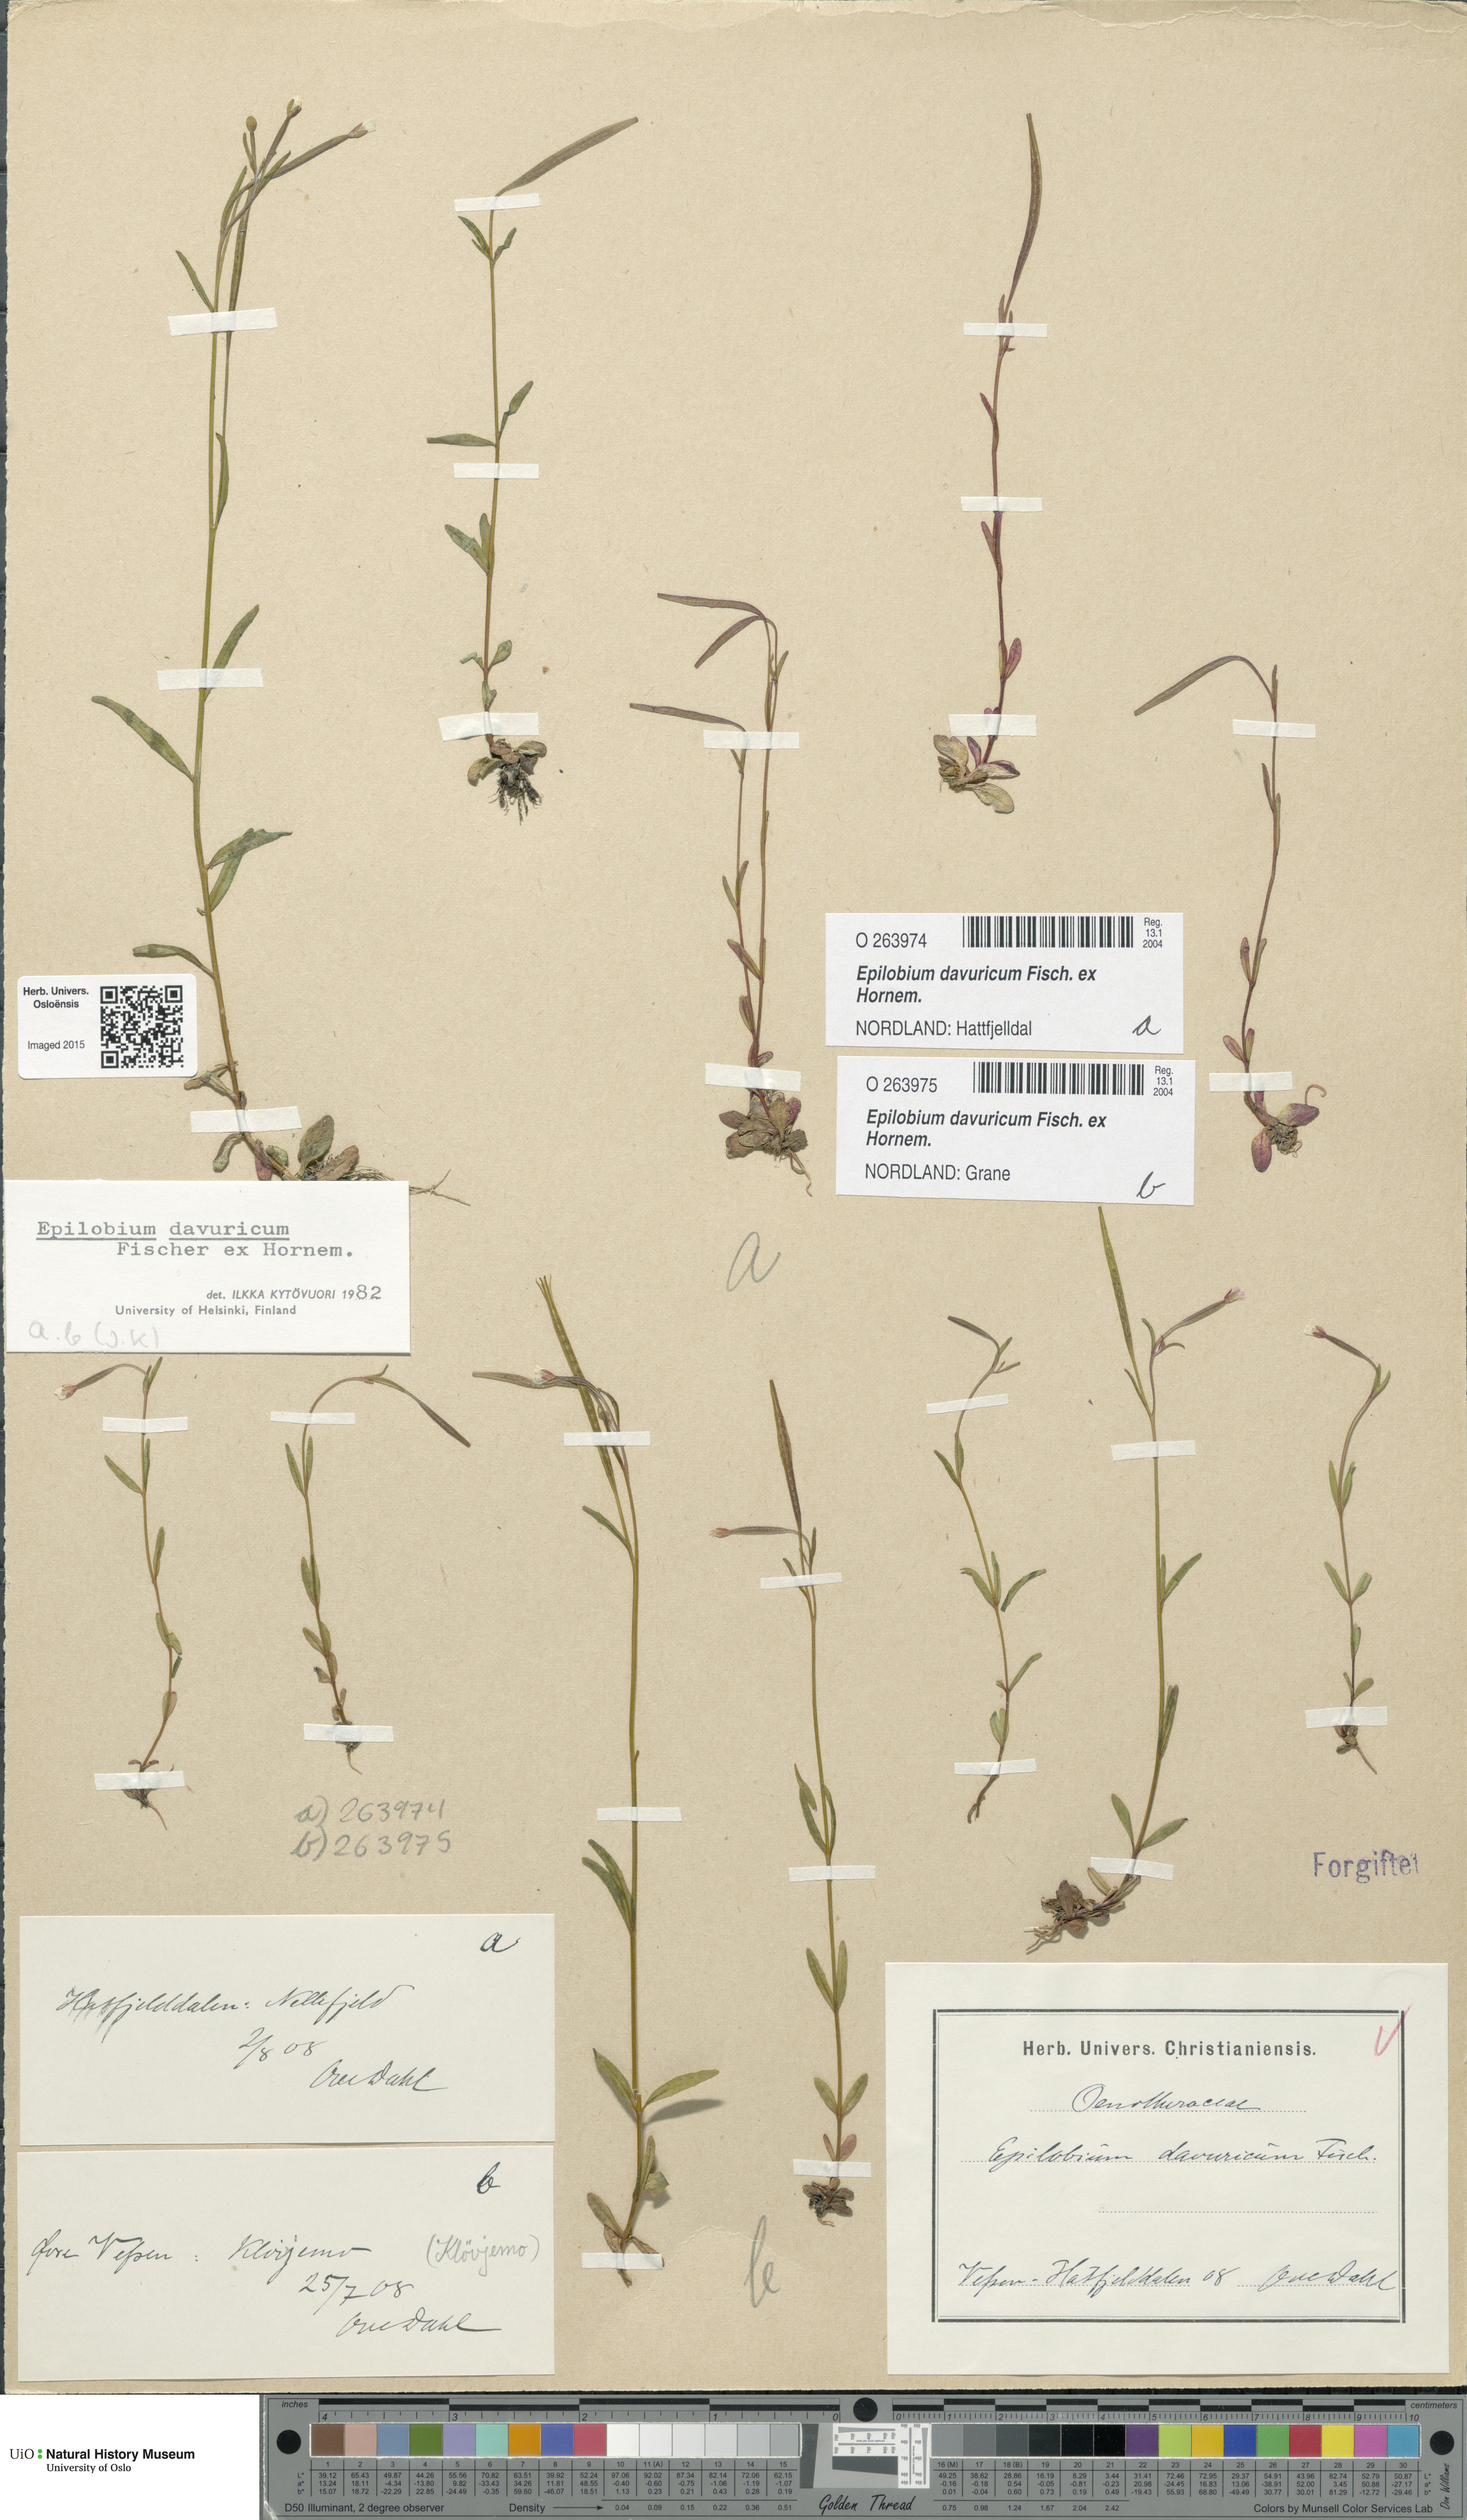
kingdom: Plantae
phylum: Tracheophyta
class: Magnoliopsida
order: Myrtales
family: Onagraceae
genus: Epilobium
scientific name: Epilobium davuricum
